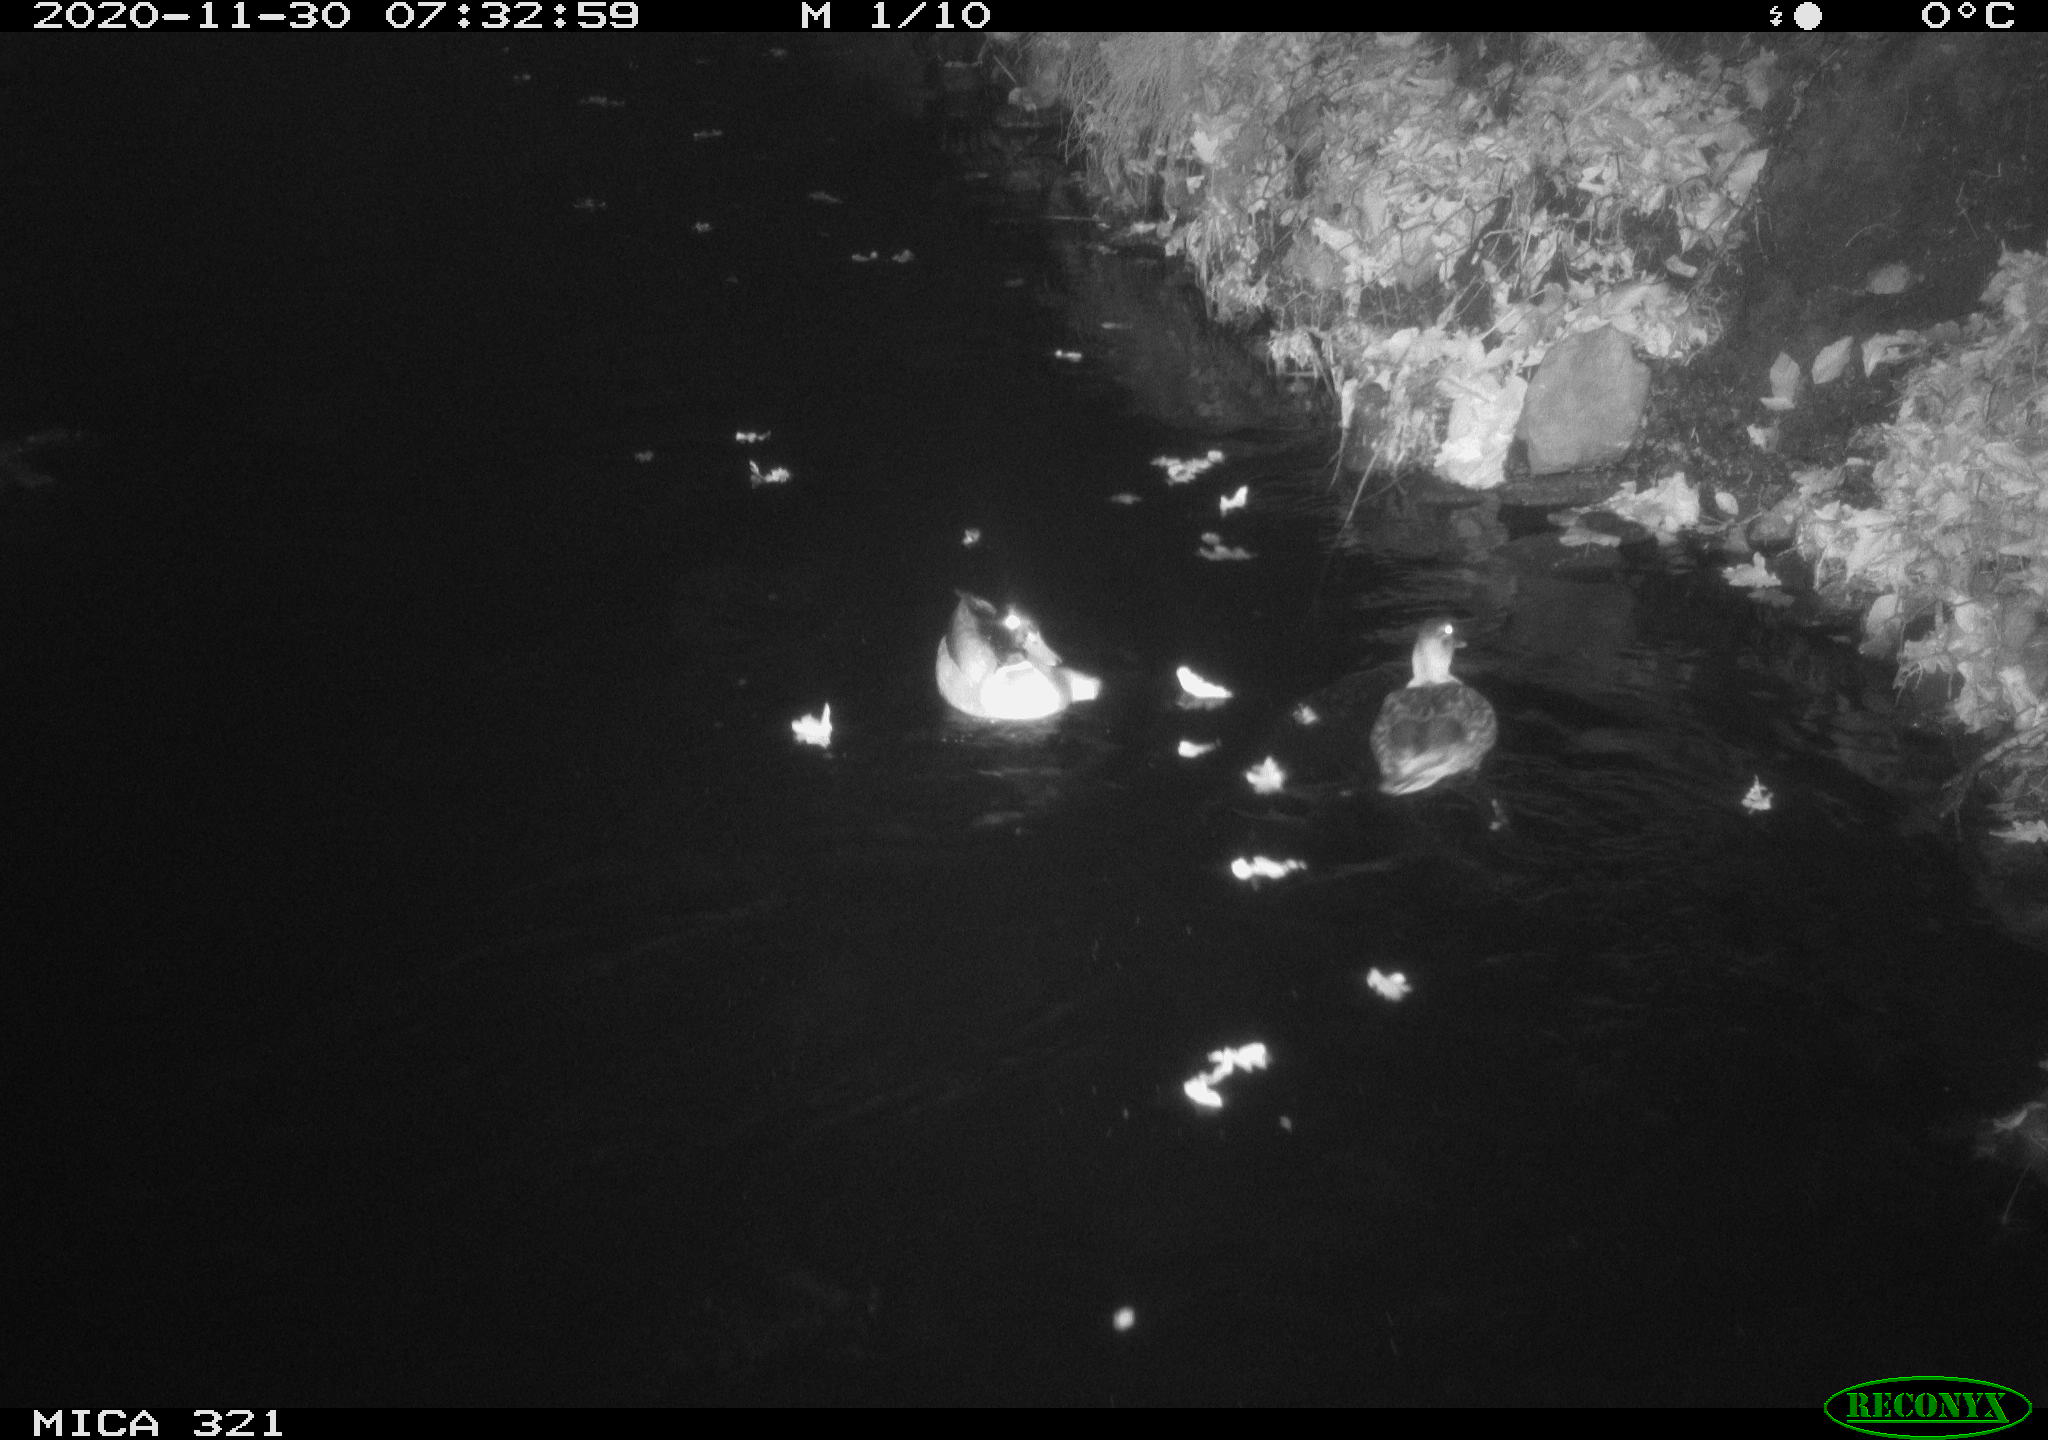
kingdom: Animalia
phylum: Chordata
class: Aves
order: Anseriformes
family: Anatidae
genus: Anas
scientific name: Anas platyrhynchos
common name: Mallard
